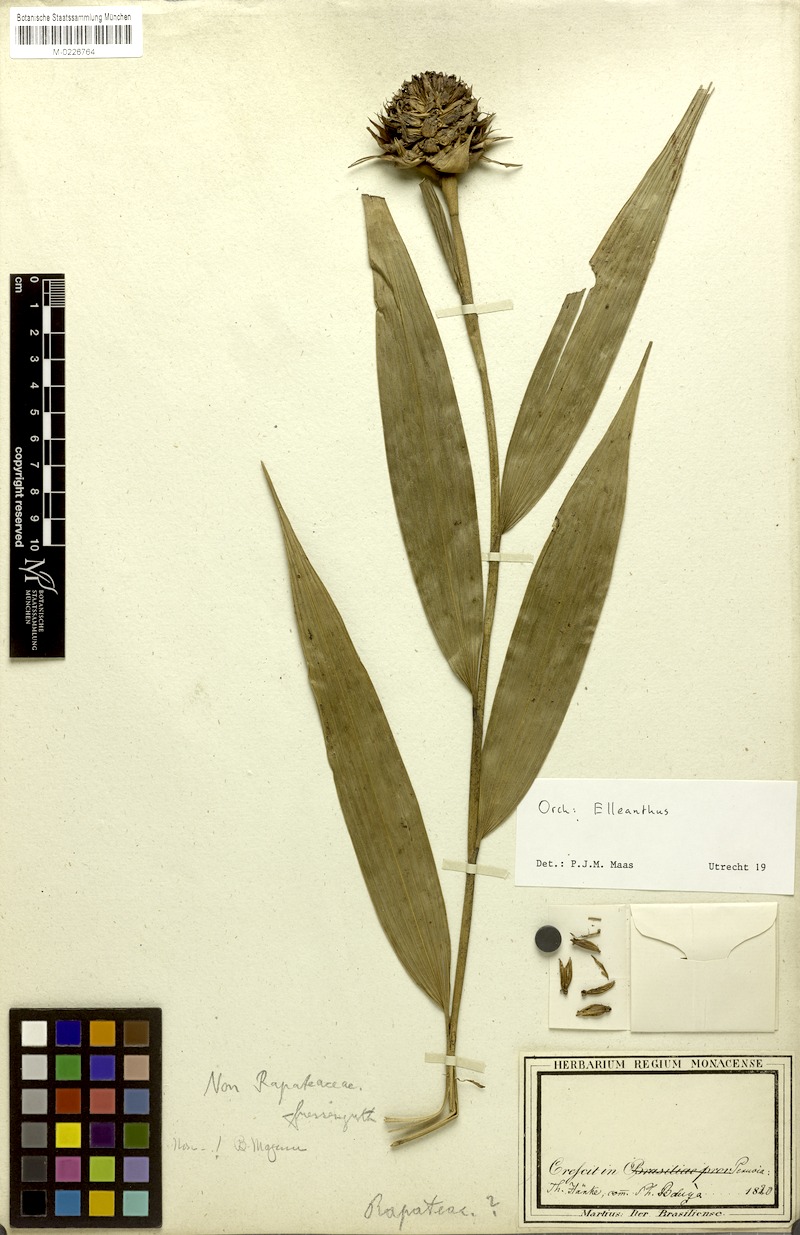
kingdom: Plantae
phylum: Tracheophyta
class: Liliopsida
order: Asparagales
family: Orchidaceae
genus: Elleanthus
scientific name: Elleanthus capitatus
